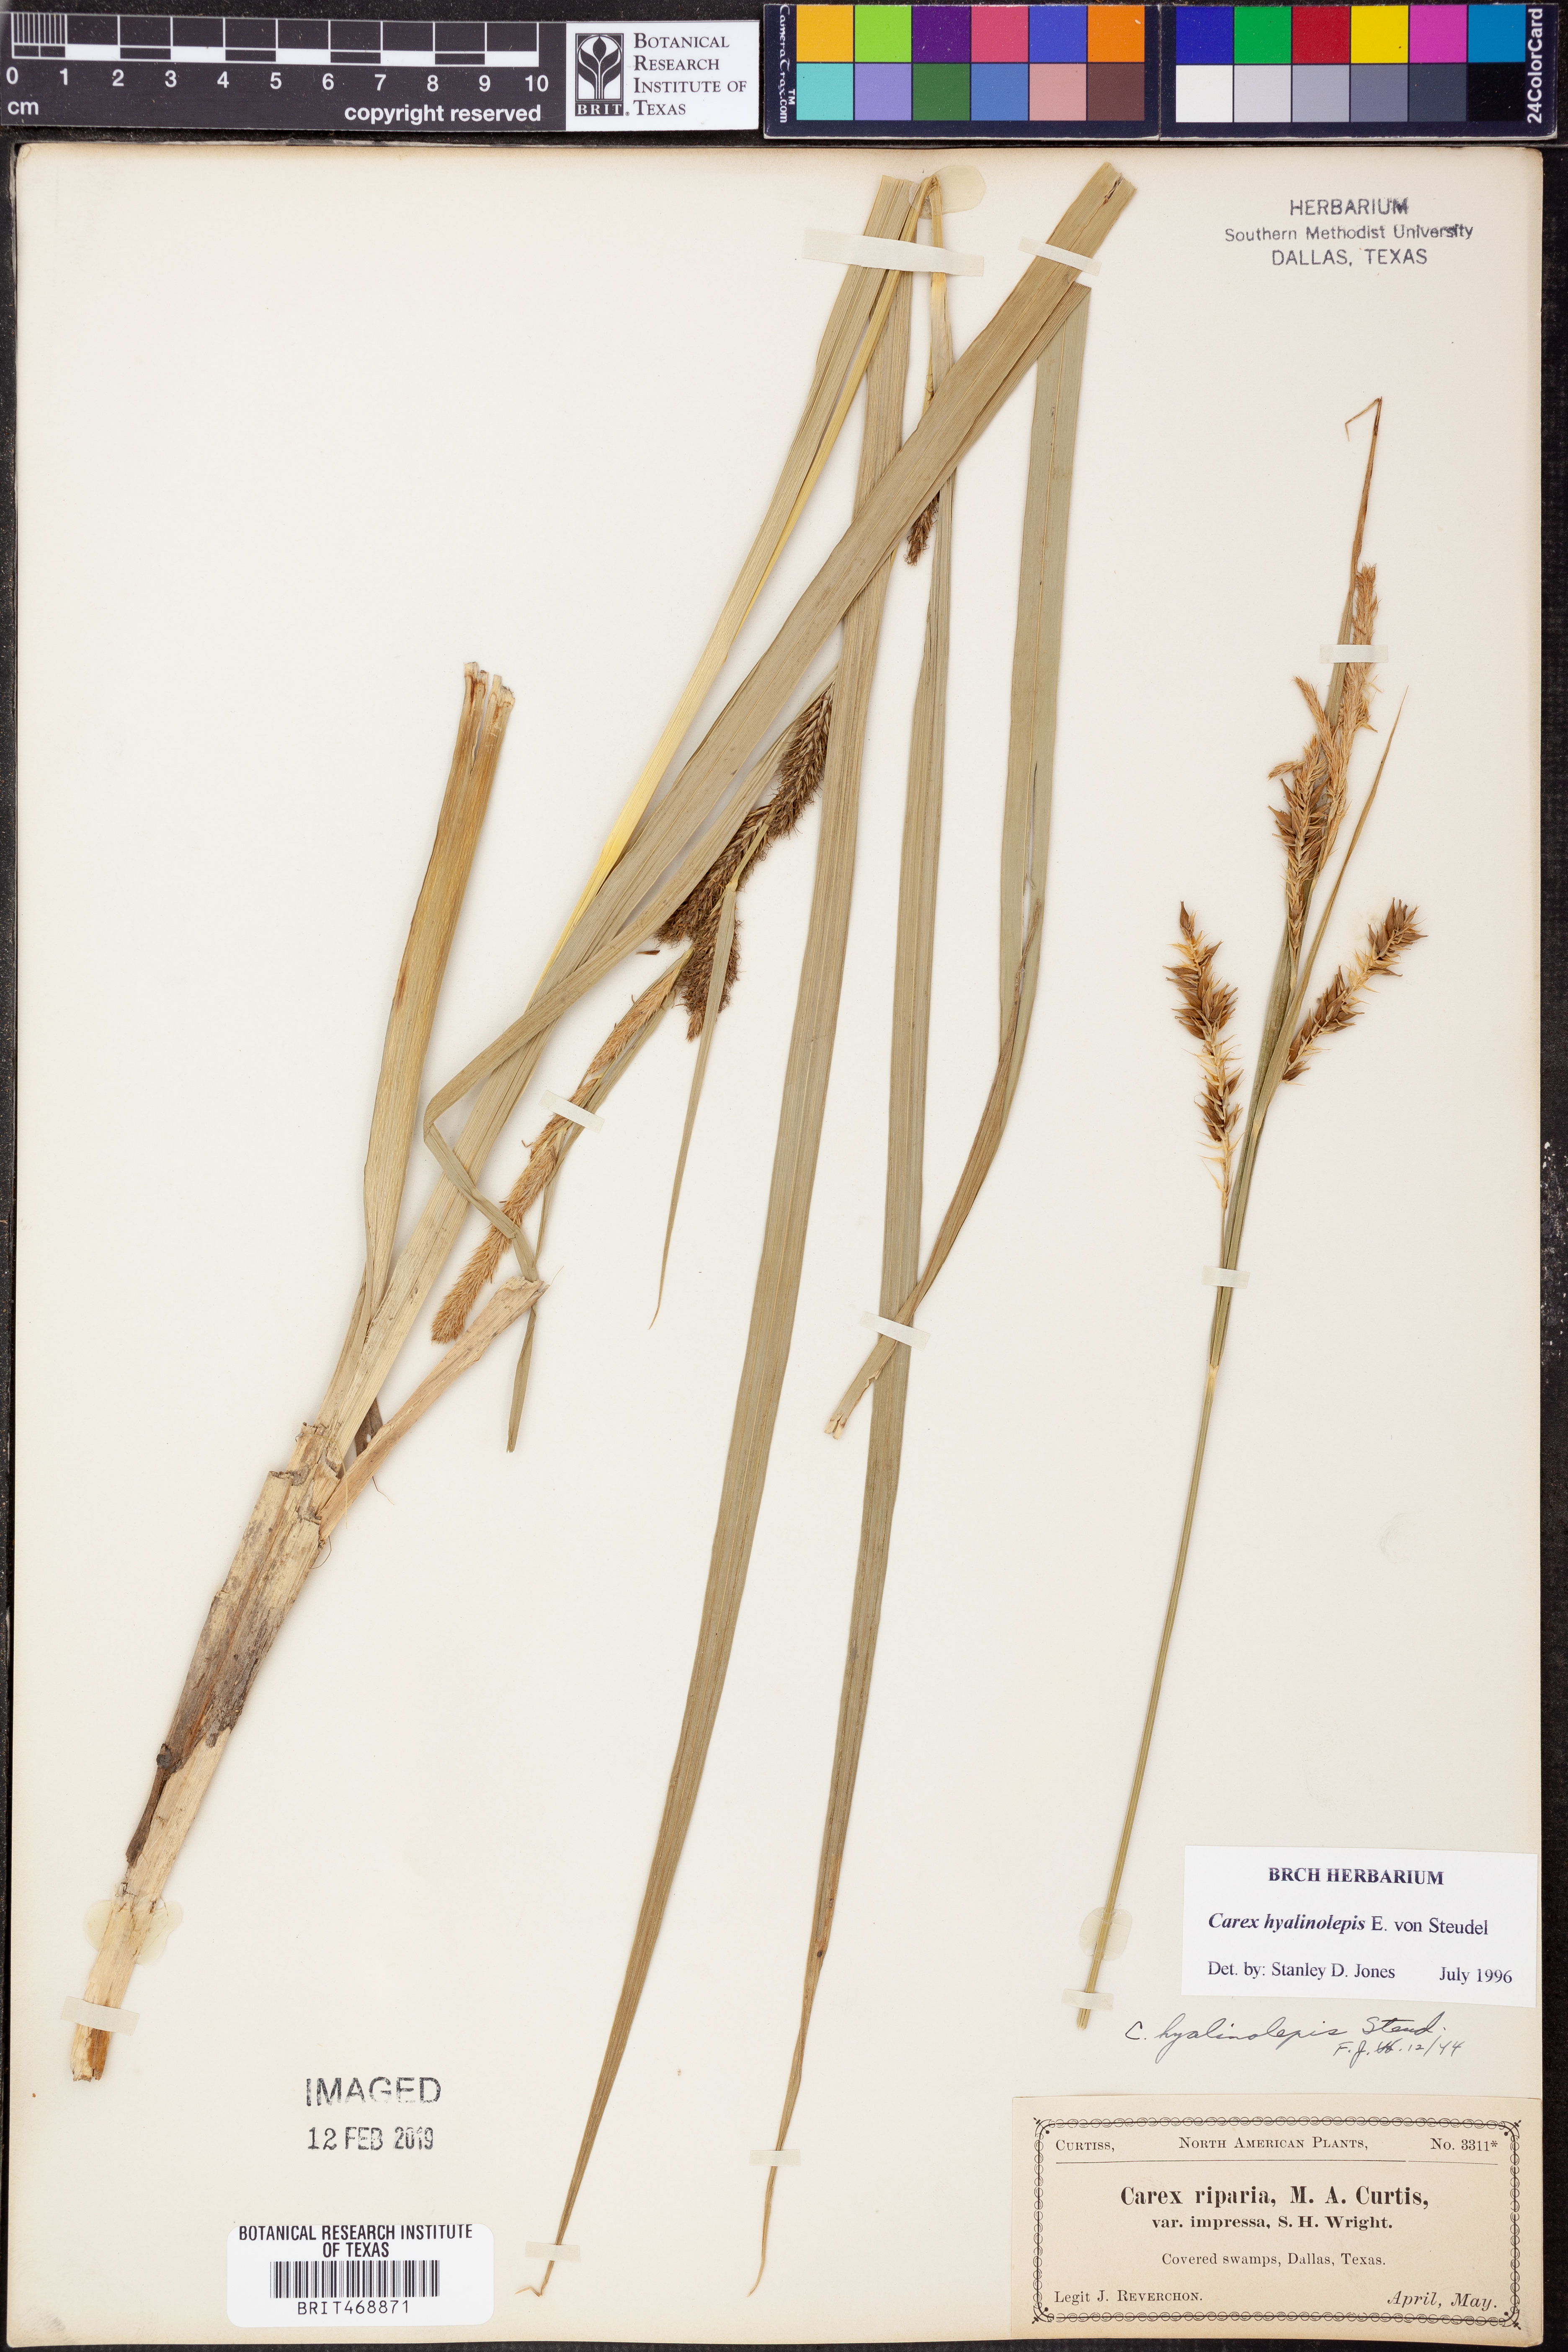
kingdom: Plantae
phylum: Tracheophyta
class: Liliopsida
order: Poales
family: Cyperaceae
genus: Carex
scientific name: Carex hyalinolepis
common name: Shoreline sedge
